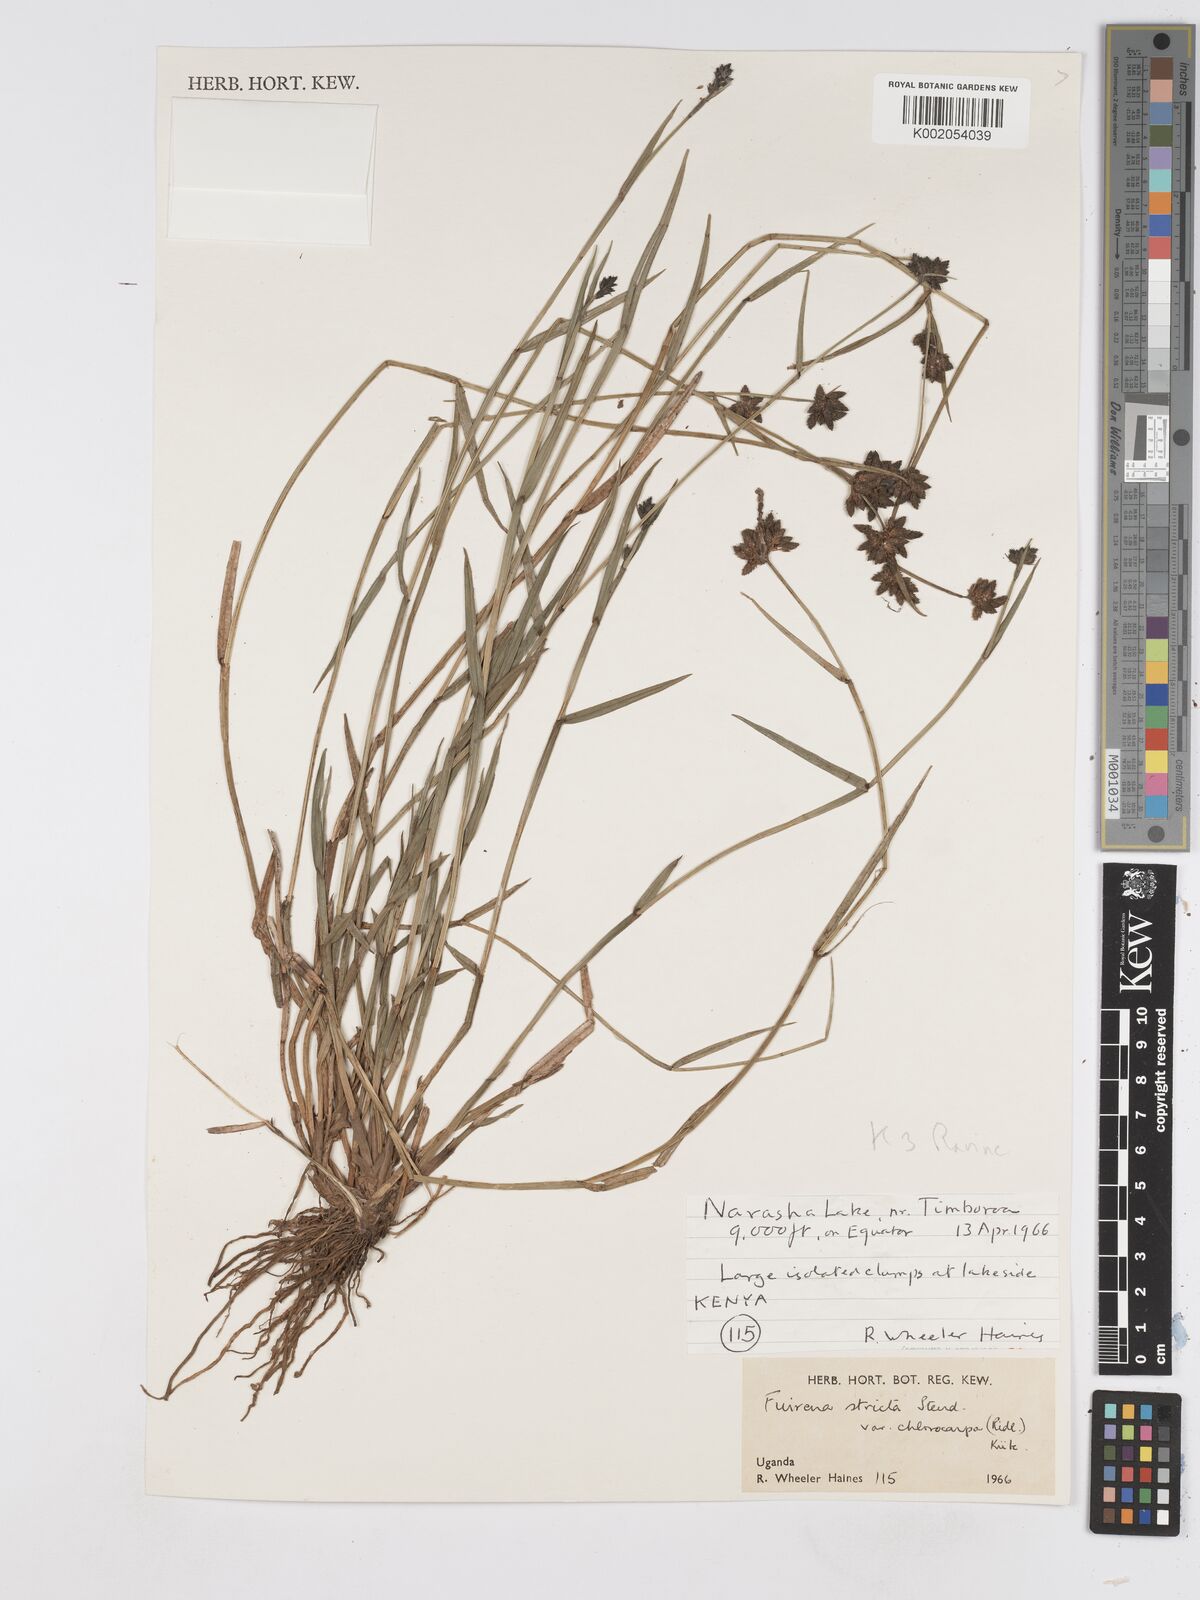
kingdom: Plantae
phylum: Tracheophyta
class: Liliopsida
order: Poales
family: Cyperaceae
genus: Fuirena
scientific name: Fuirena stricta
